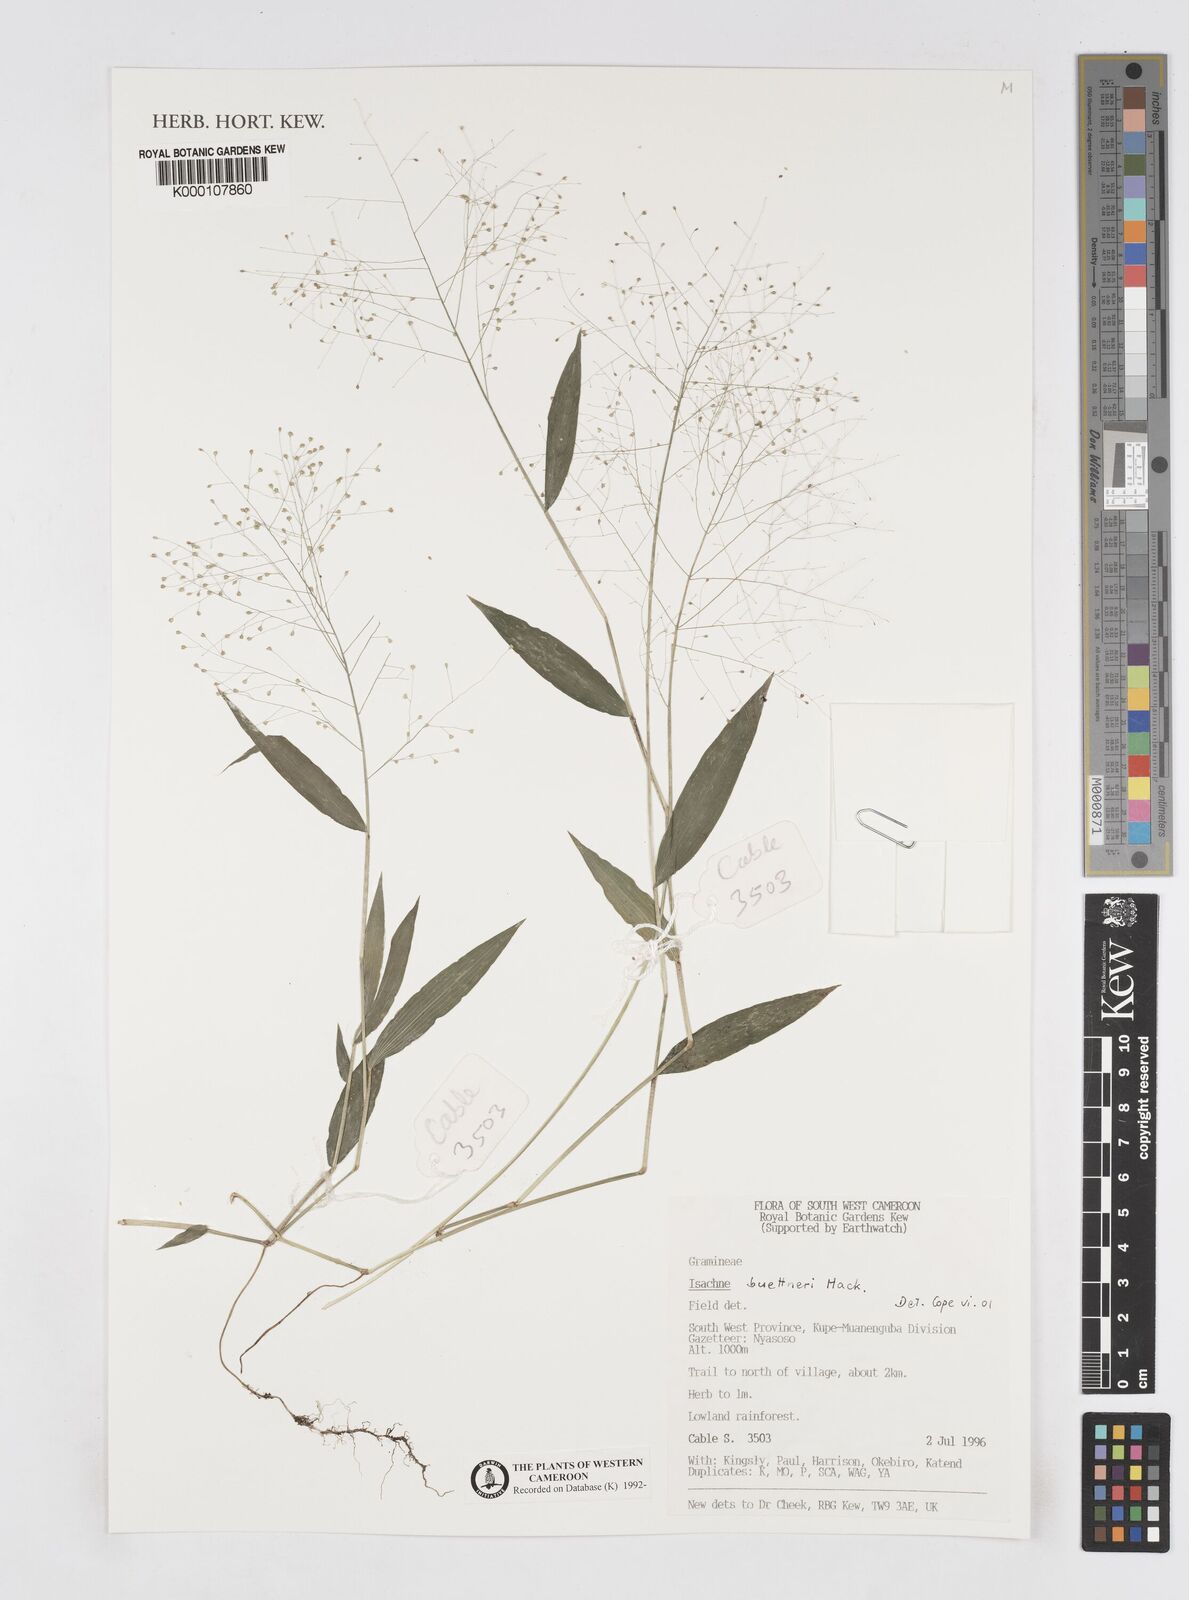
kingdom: Plantae
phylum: Tracheophyta
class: Liliopsida
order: Poales
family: Poaceae
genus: Isachne
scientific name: Isachne albens
